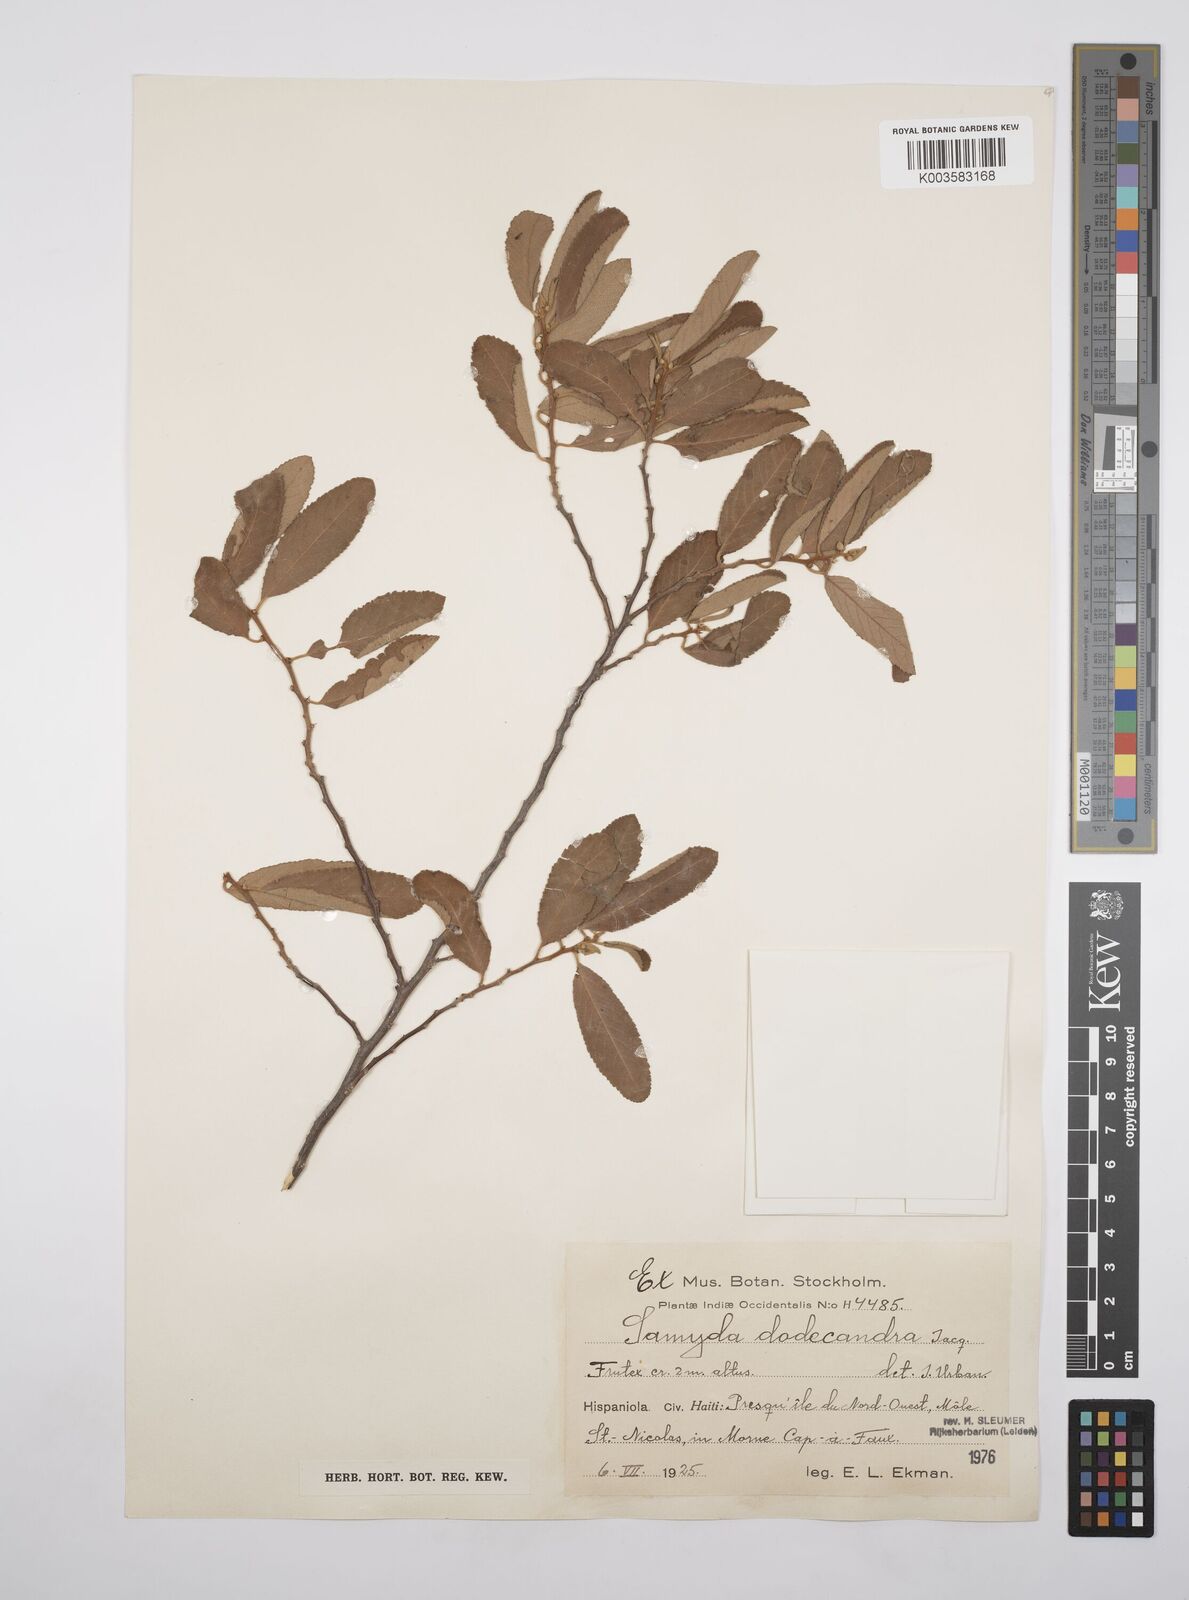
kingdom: Plantae
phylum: Tracheophyta
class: Magnoliopsida
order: Malpighiales
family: Salicaceae
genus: Casearia
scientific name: Casearia dodecandra
